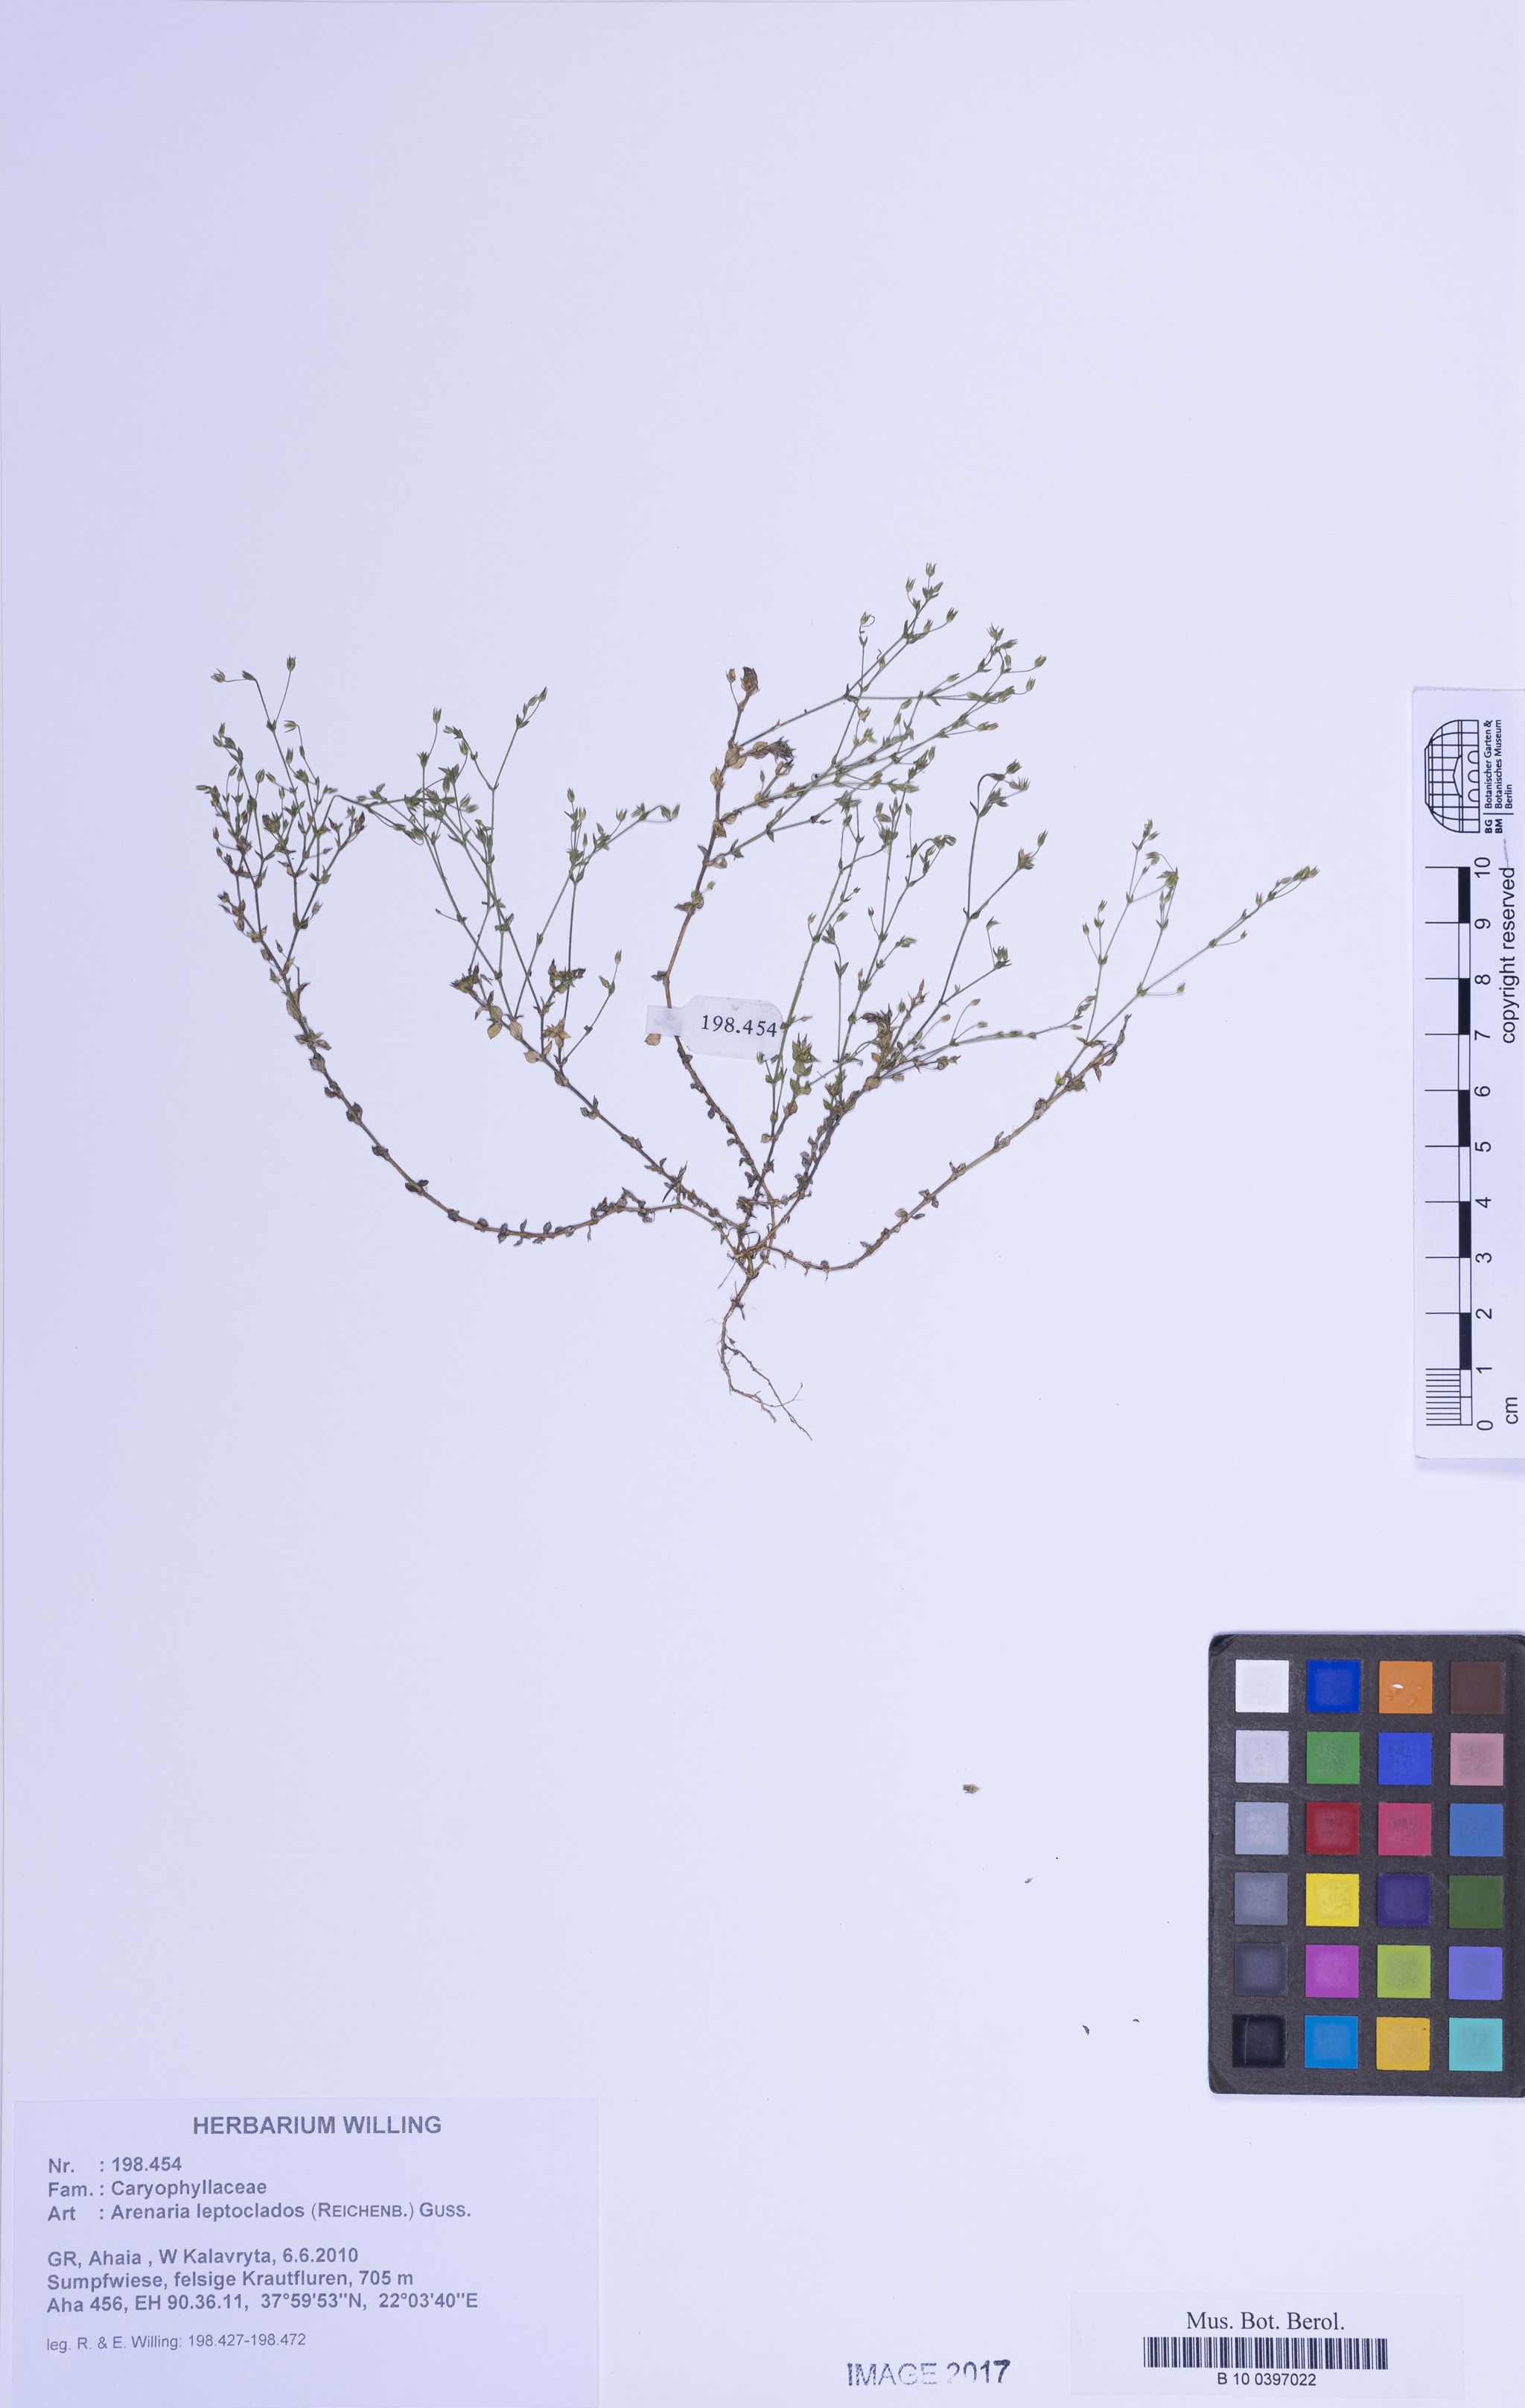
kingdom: Plantae
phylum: Tracheophyta
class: Magnoliopsida
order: Caryophyllales
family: Caryophyllaceae
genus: Arenaria
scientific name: Arenaria leptoclados
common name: Thyme-leaved sandwort
